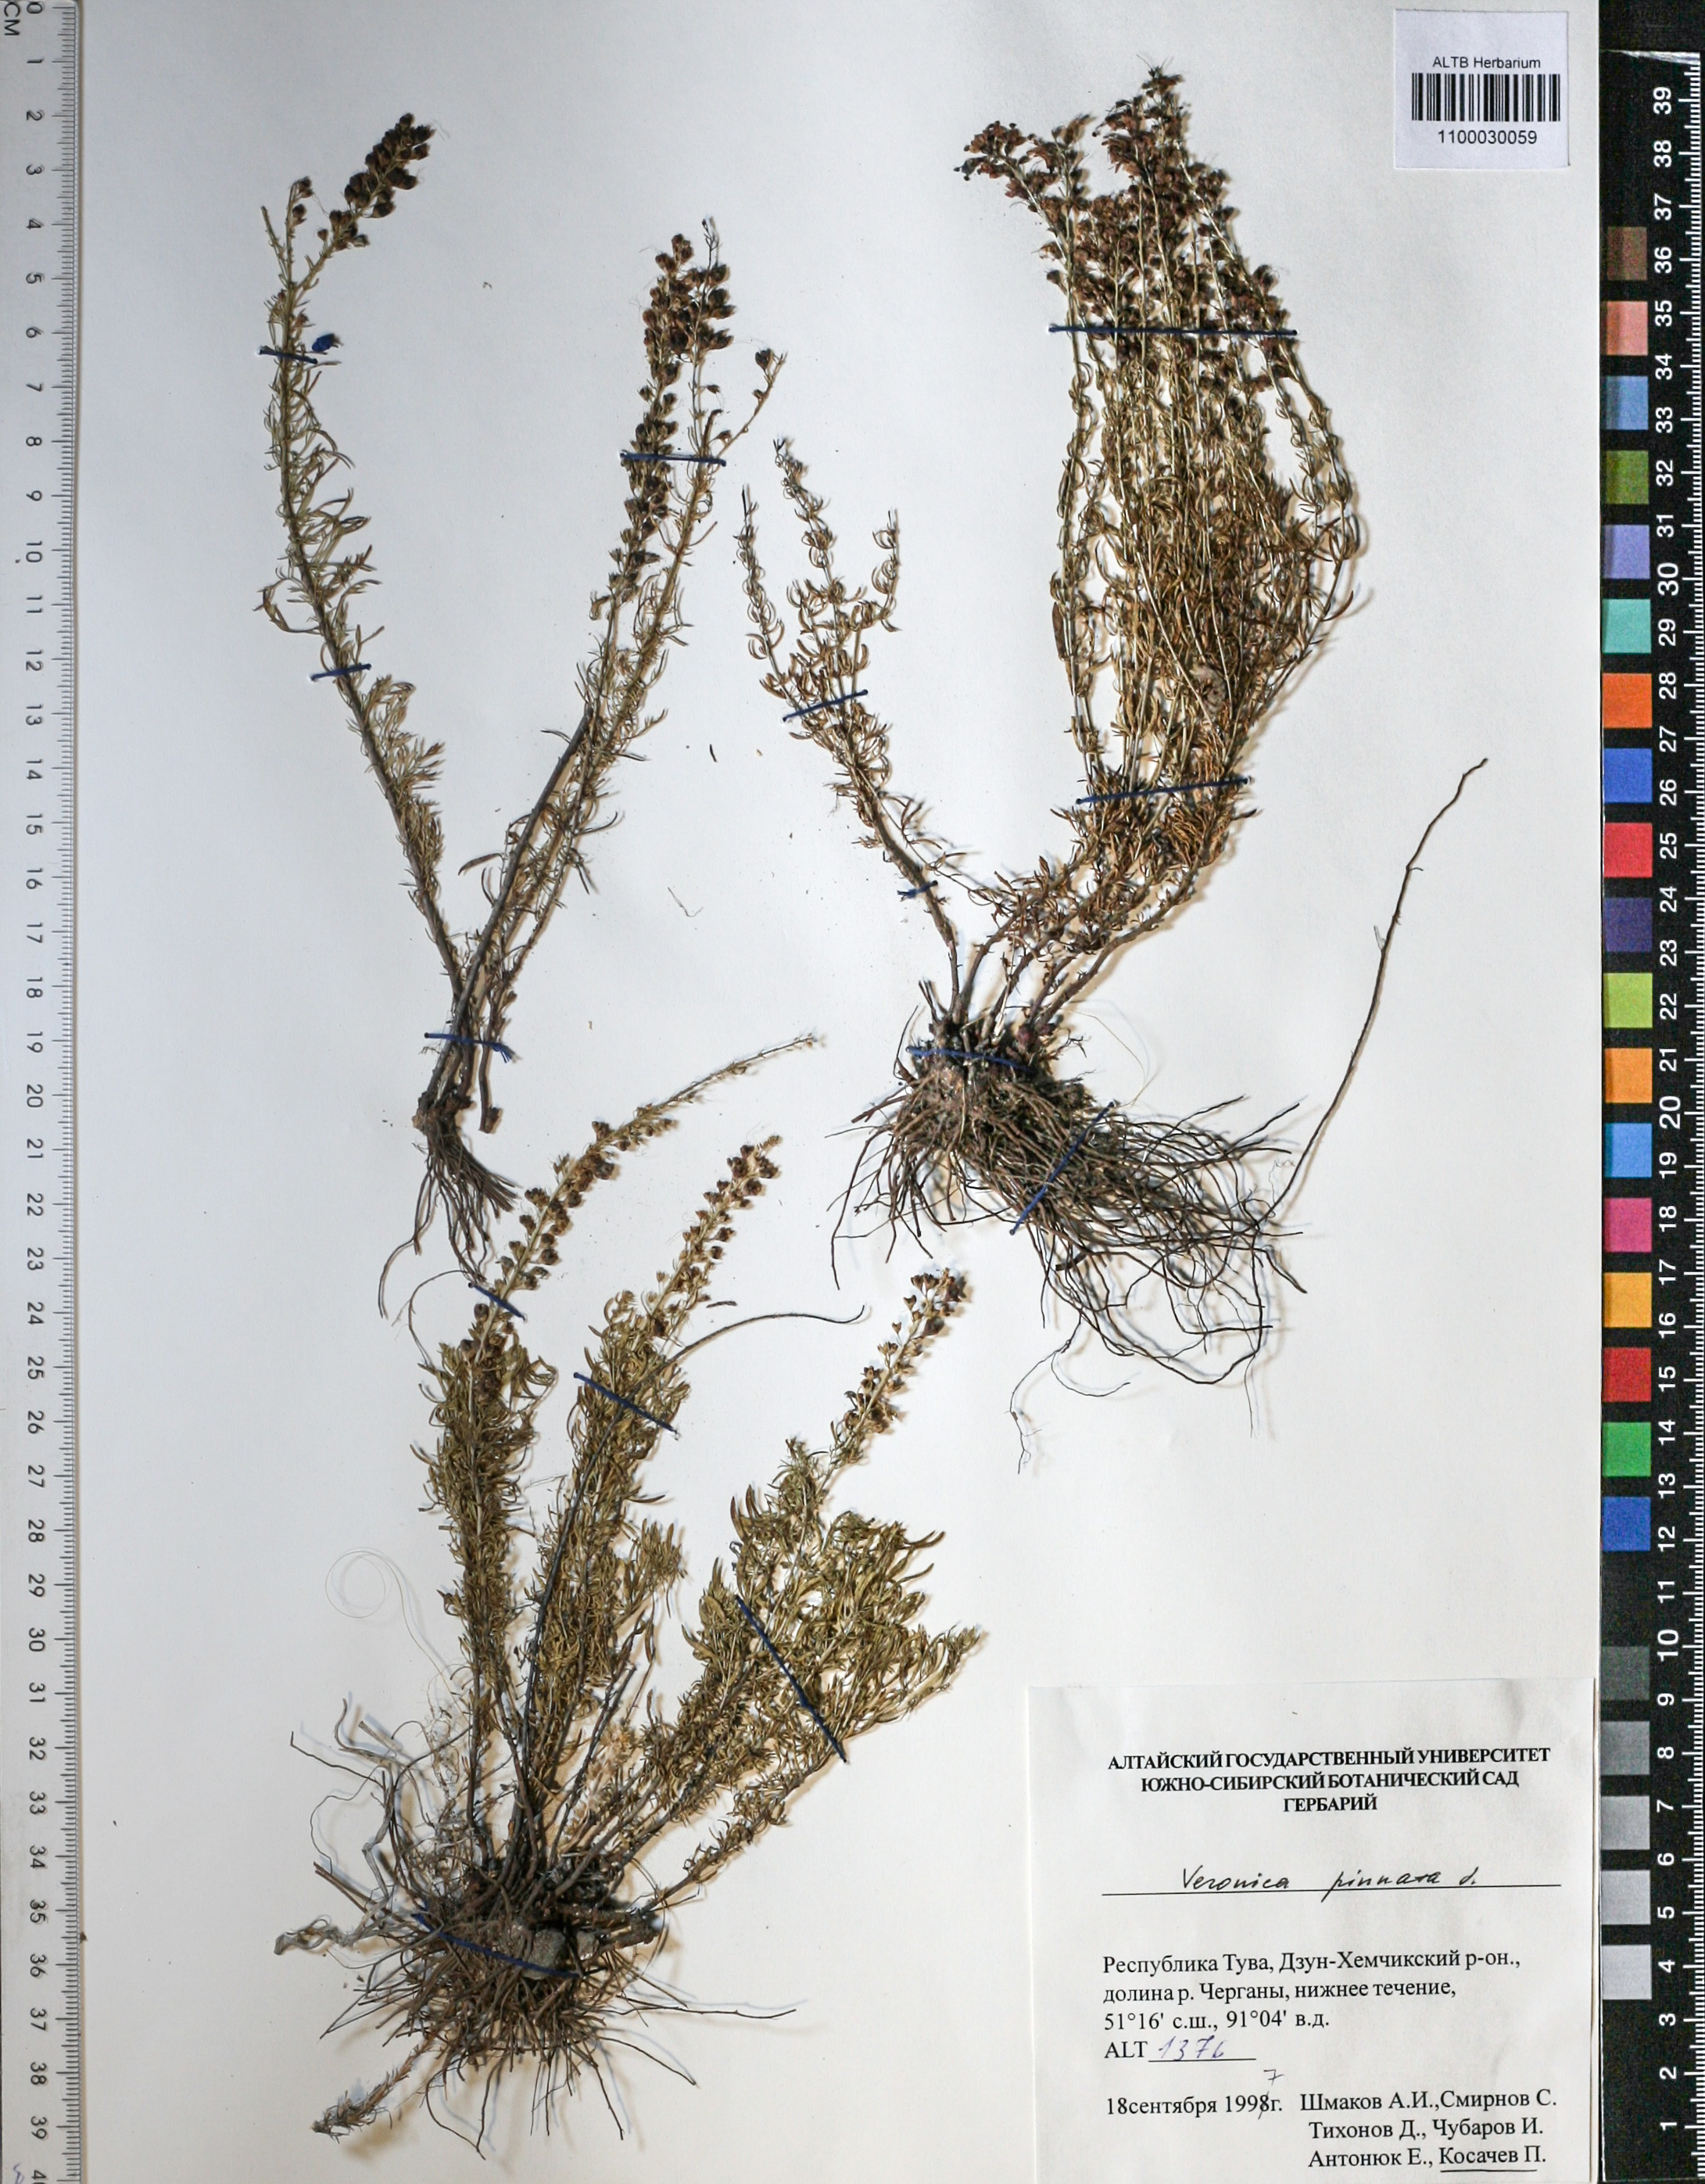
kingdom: Plantae
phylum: Tracheophyta
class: Magnoliopsida
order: Lamiales
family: Plantaginaceae
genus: Veronica
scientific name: Veronica pinnata
